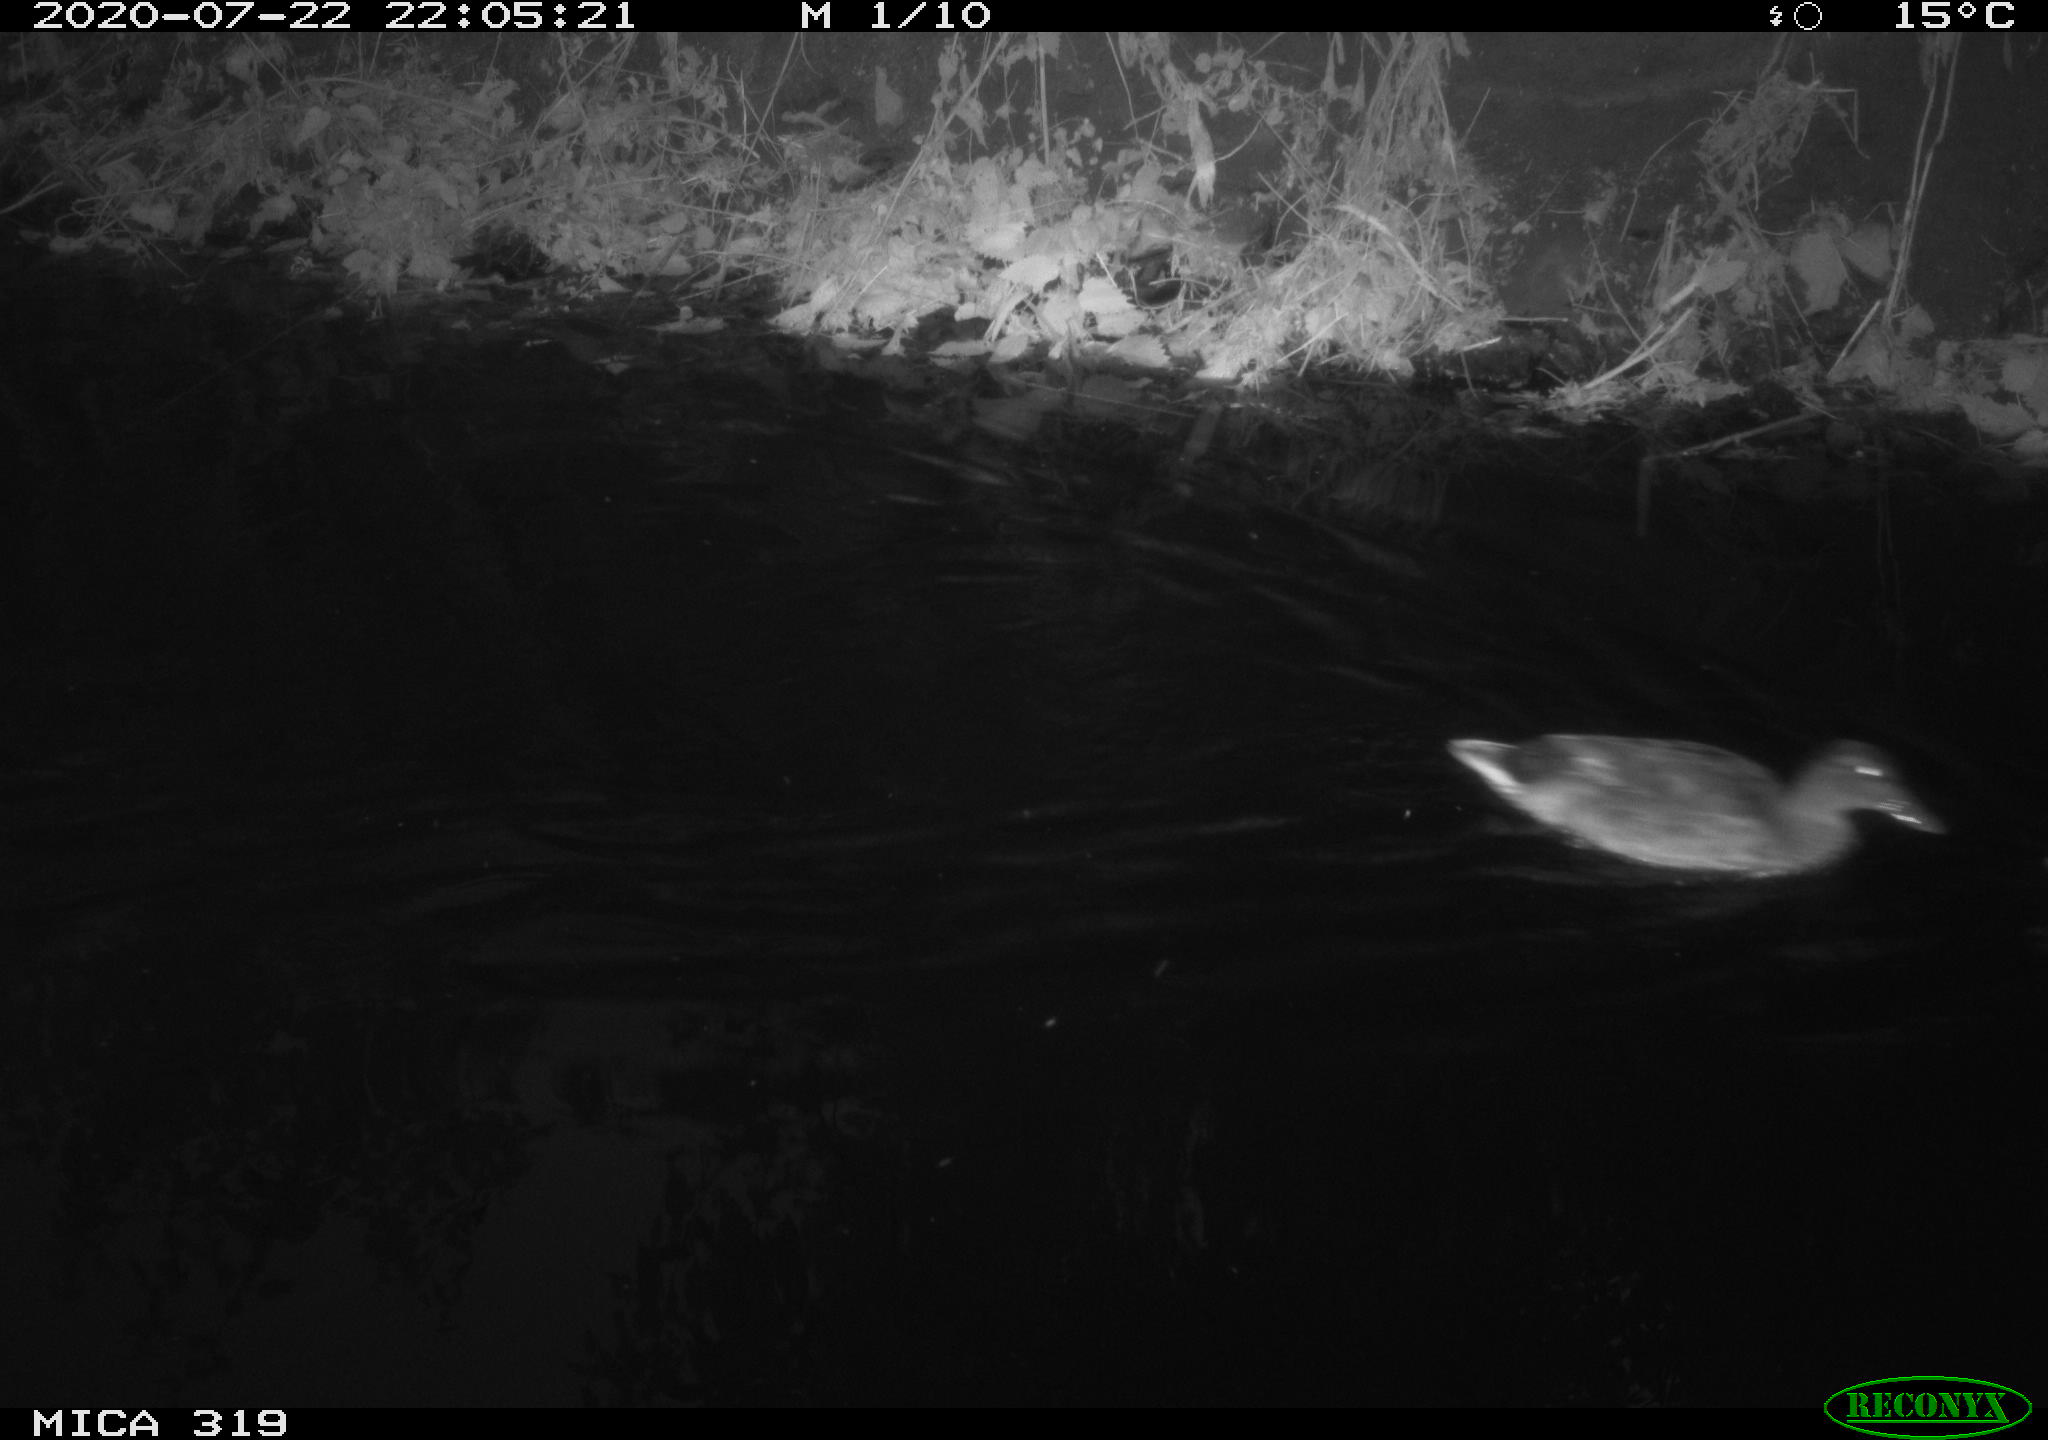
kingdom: Animalia
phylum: Chordata
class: Aves
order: Anseriformes
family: Anatidae
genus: Anas
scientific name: Anas platyrhynchos
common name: Mallard
